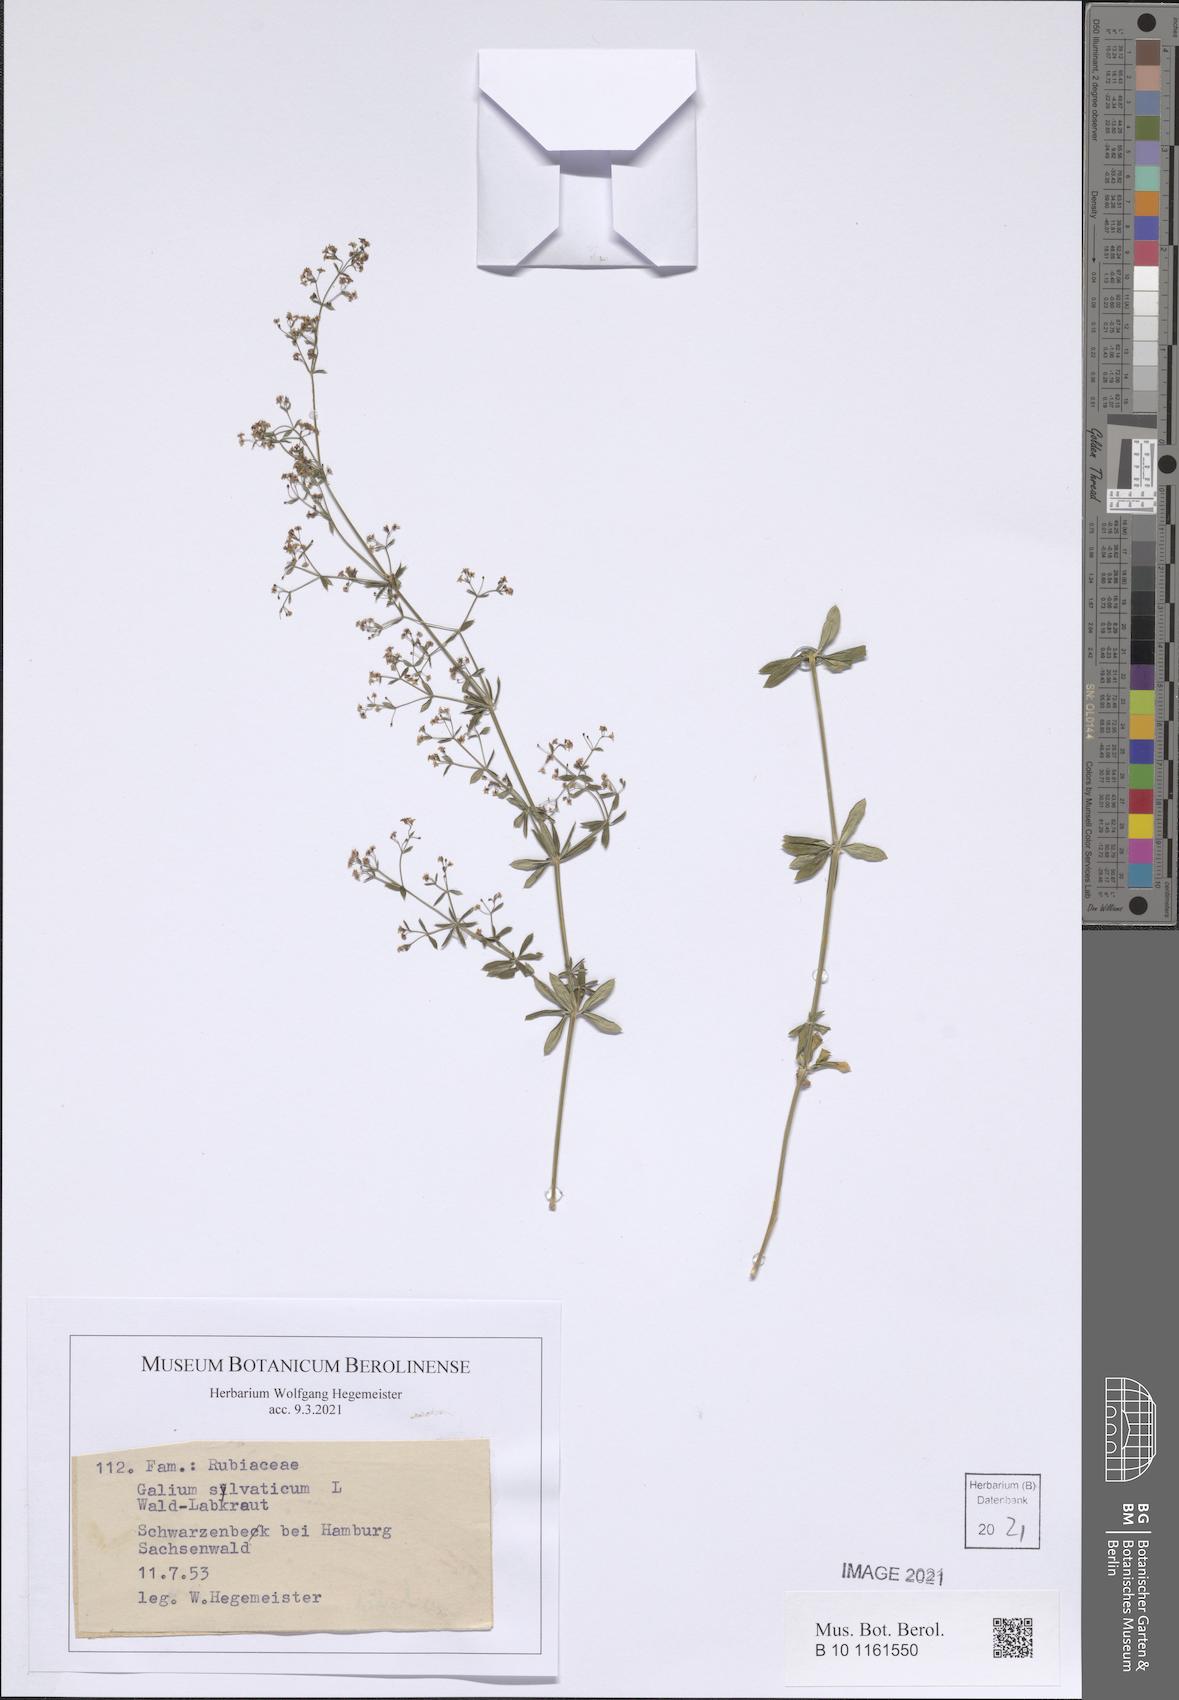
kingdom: Plantae
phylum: Tracheophyta
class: Magnoliopsida
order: Gentianales
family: Rubiaceae
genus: Galium
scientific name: Galium sylvaticum
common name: Wood bedstraw
